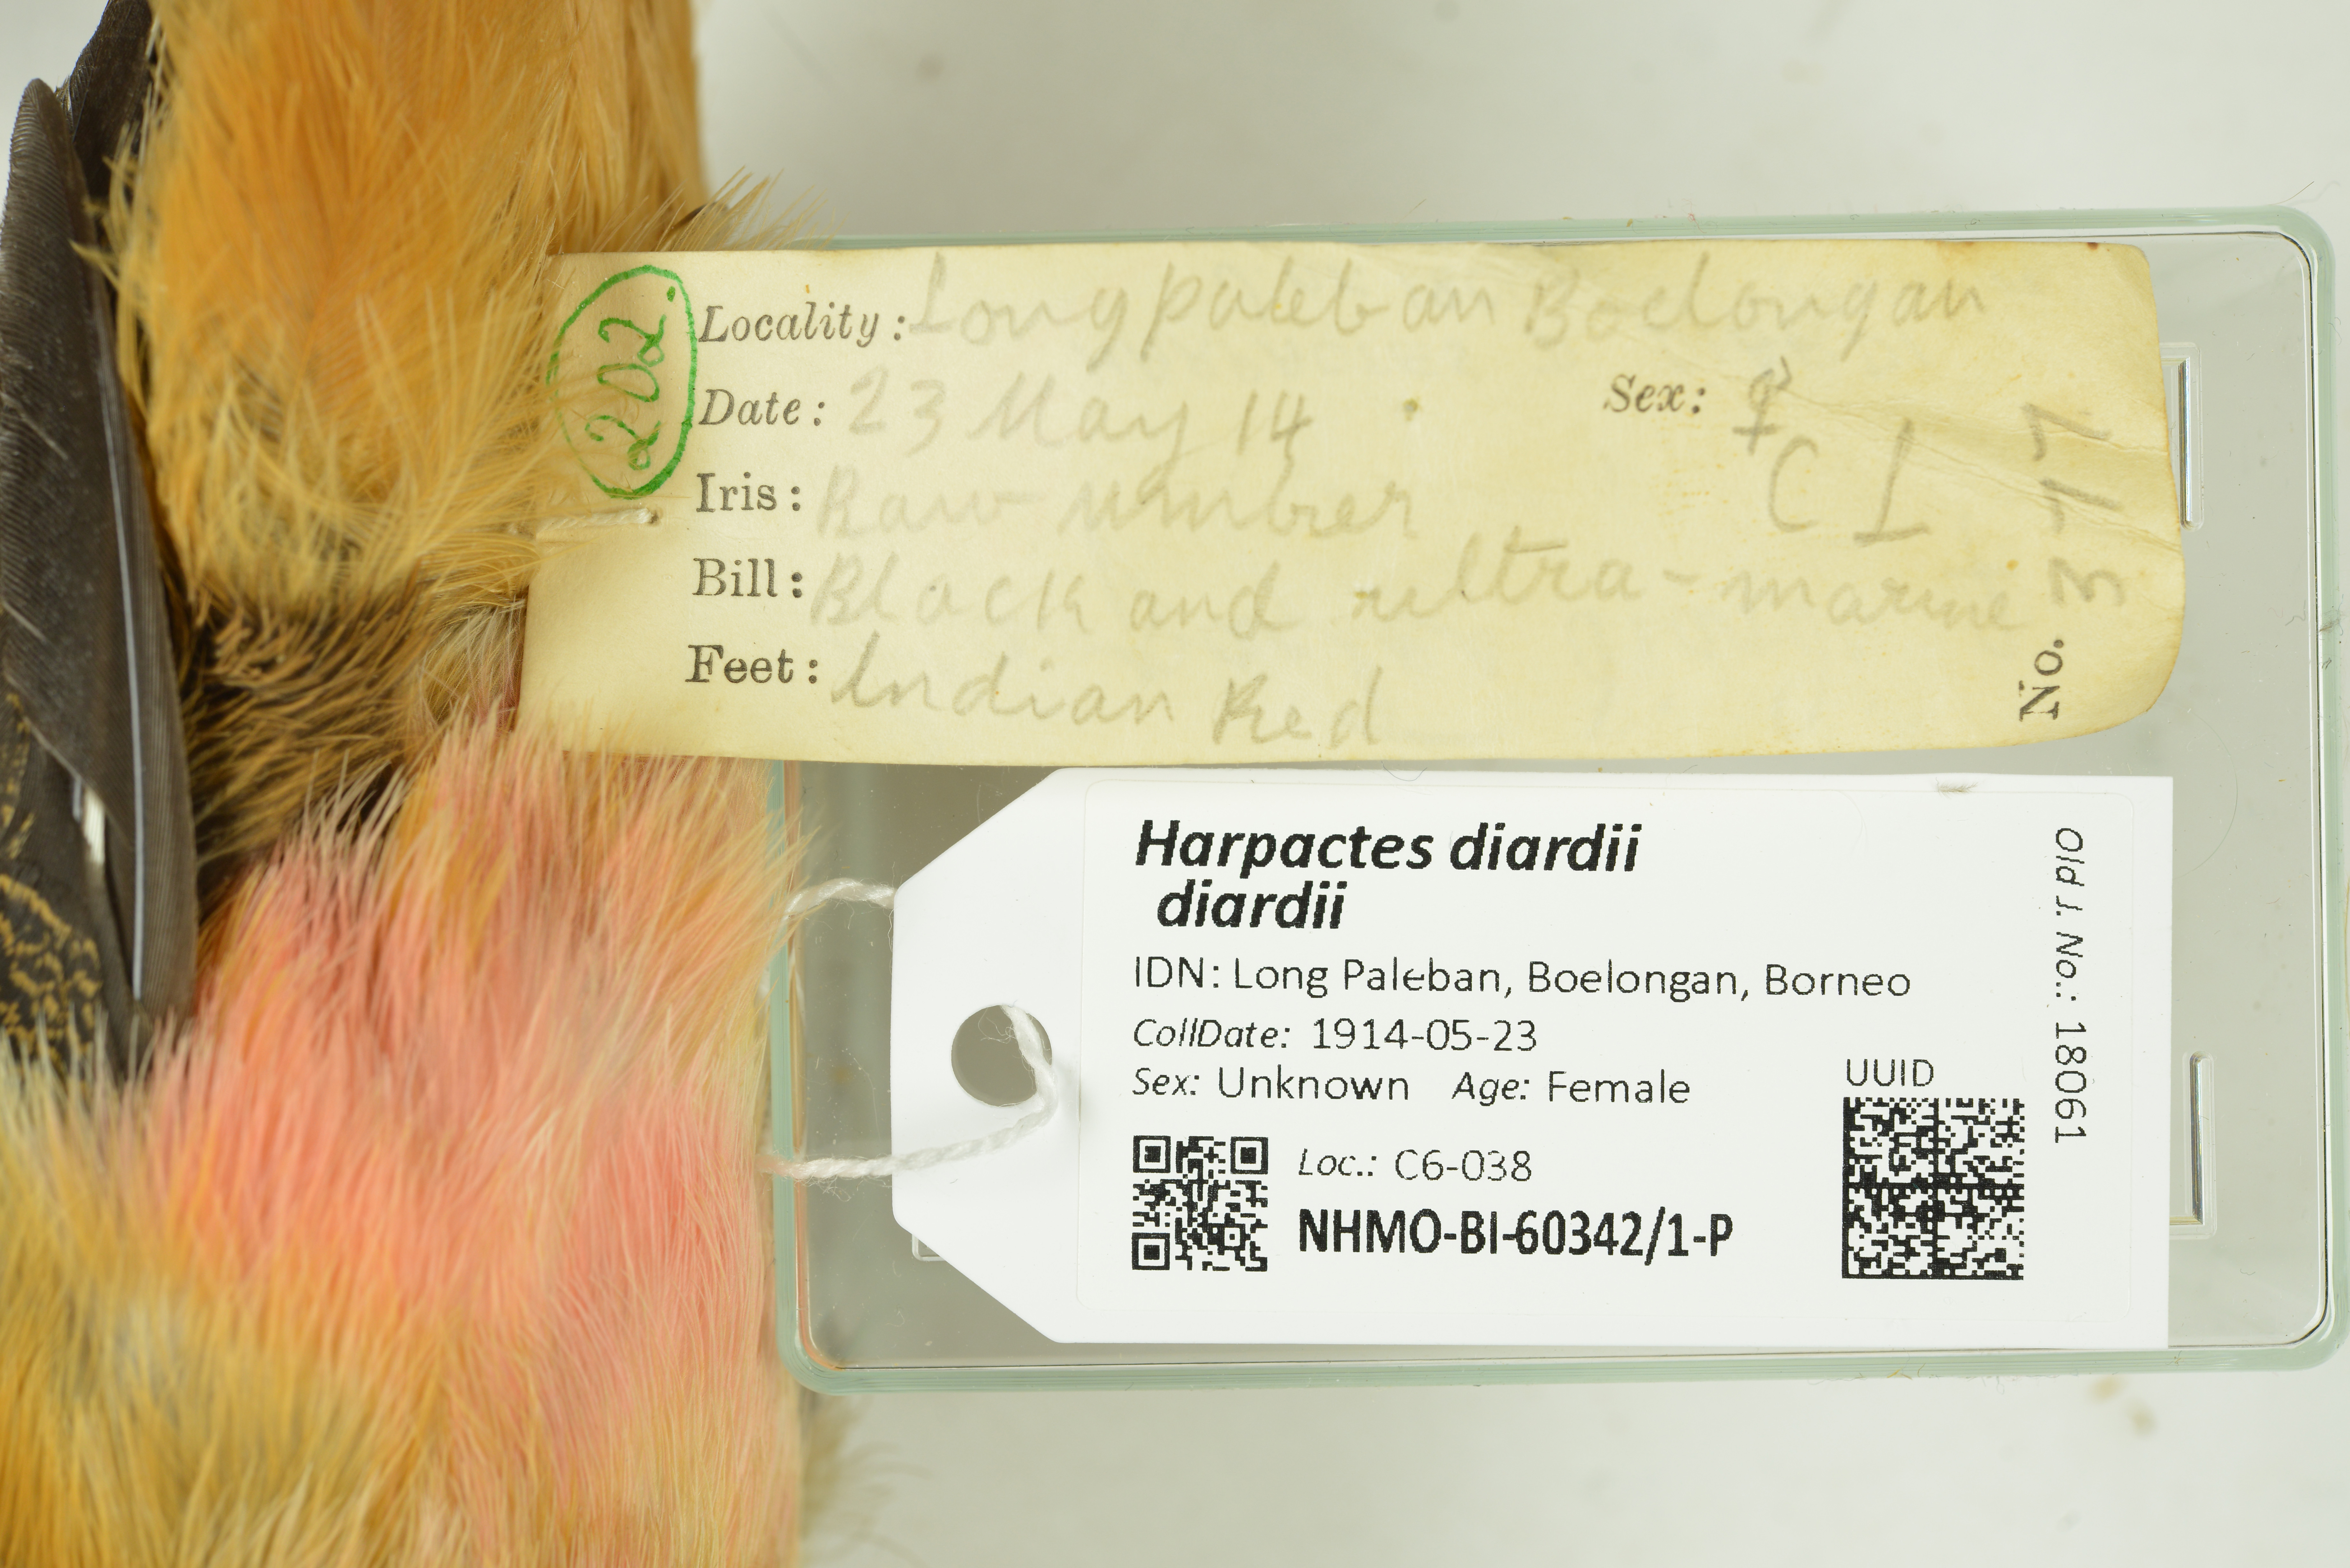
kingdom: Animalia
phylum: Chordata
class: Aves
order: Trogoniformes
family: Trogonidae
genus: Harpactes
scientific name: Harpactes diardii
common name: Diard's trogon
